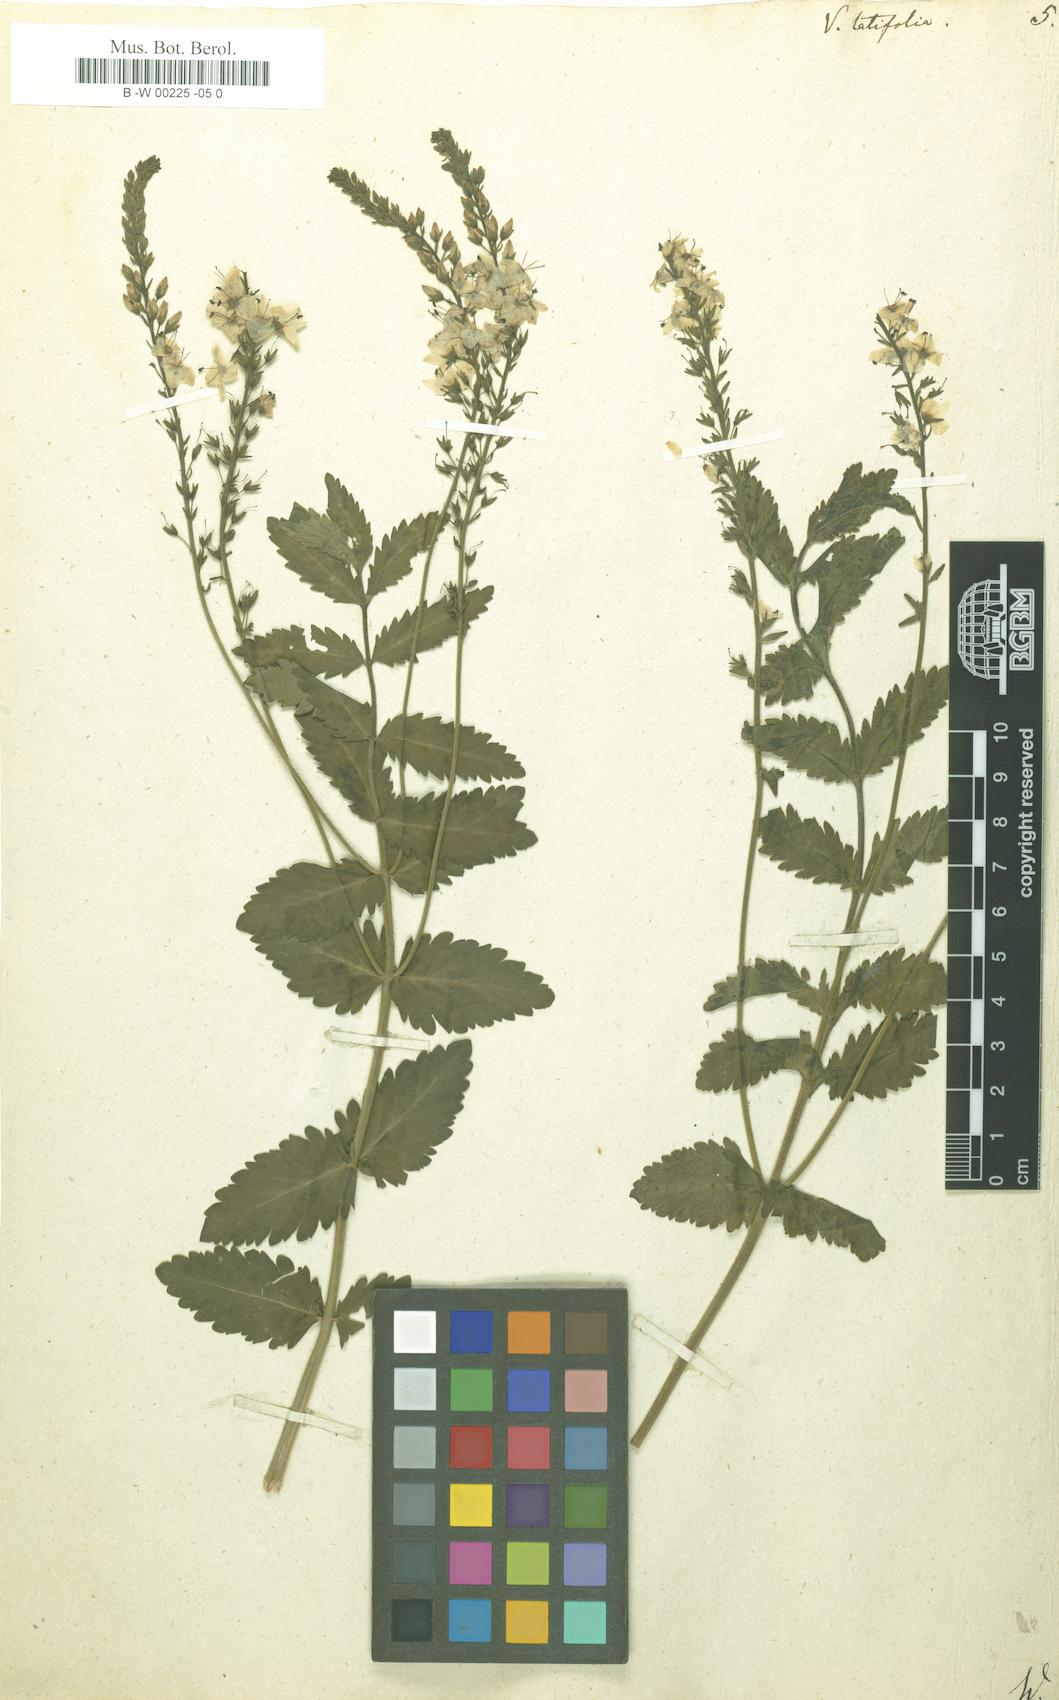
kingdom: Plantae
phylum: Tracheophyta
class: Magnoliopsida
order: Lamiales
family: Plantaginaceae
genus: Veronica
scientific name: Veronica latifolia
